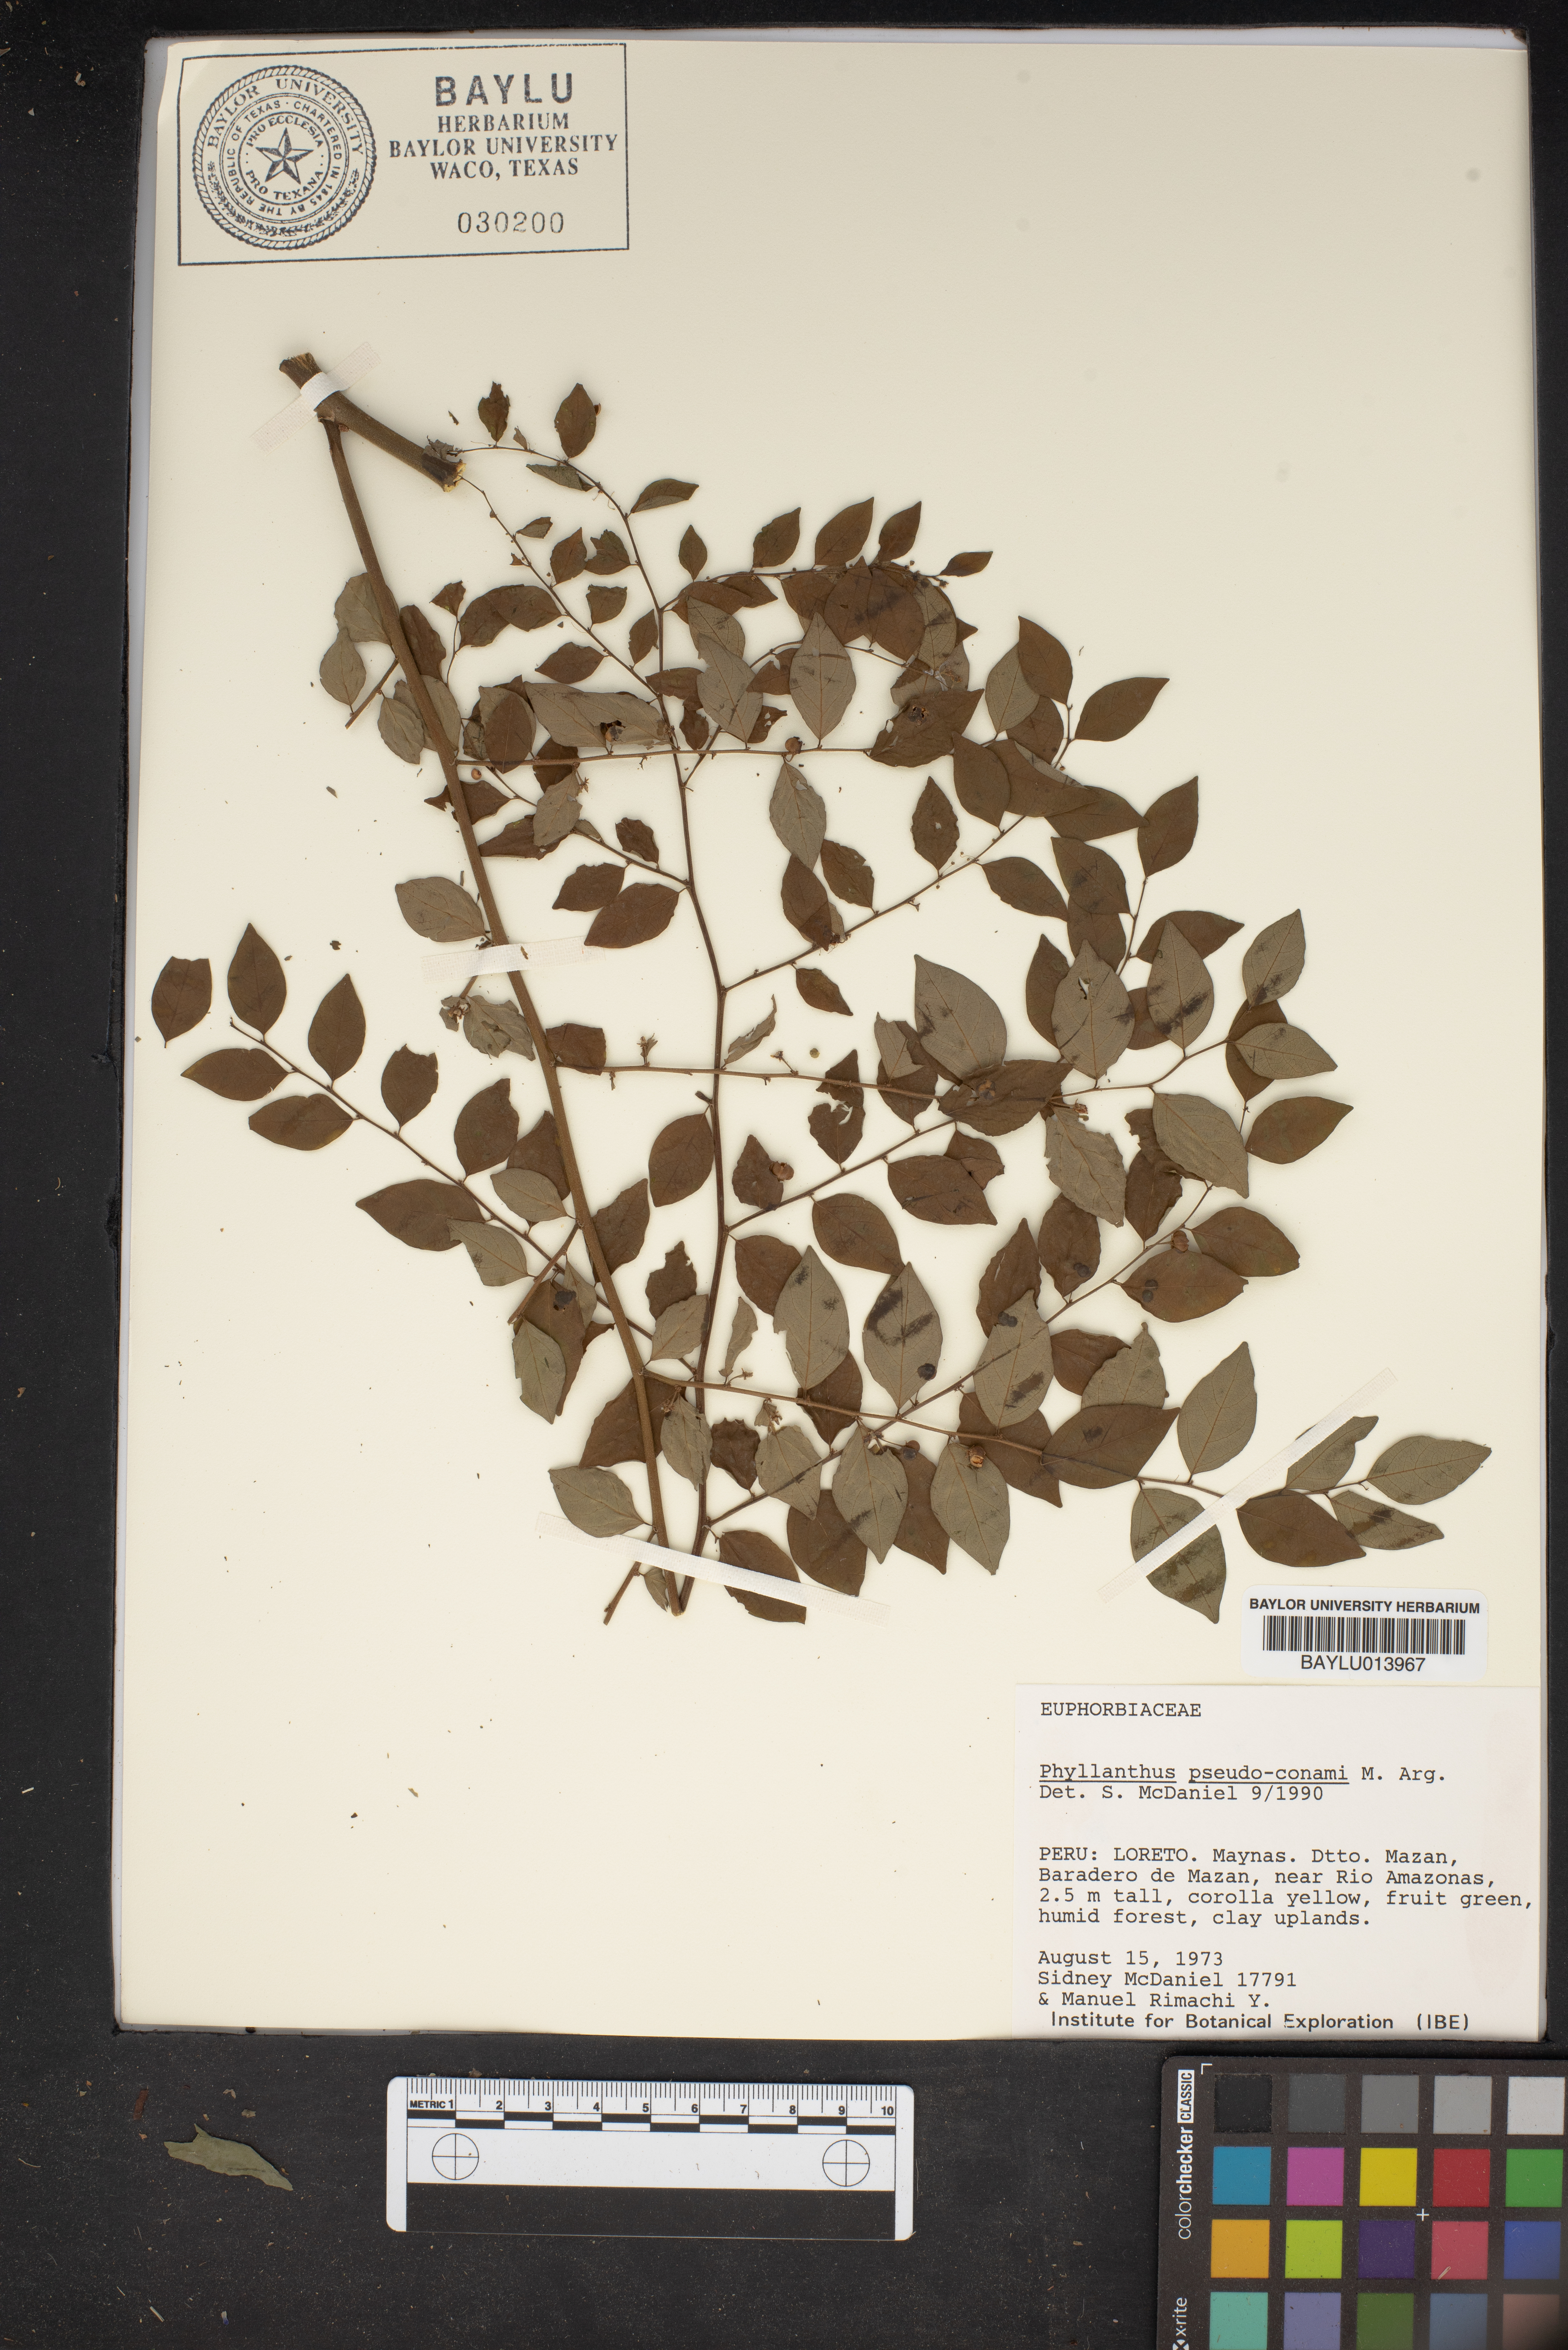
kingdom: Plantae
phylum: Tracheophyta
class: Magnoliopsida
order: Malpighiales
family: Phyllanthaceae
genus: Phyllanthus
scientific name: Phyllanthus brasiliensis
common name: Fish-poison
